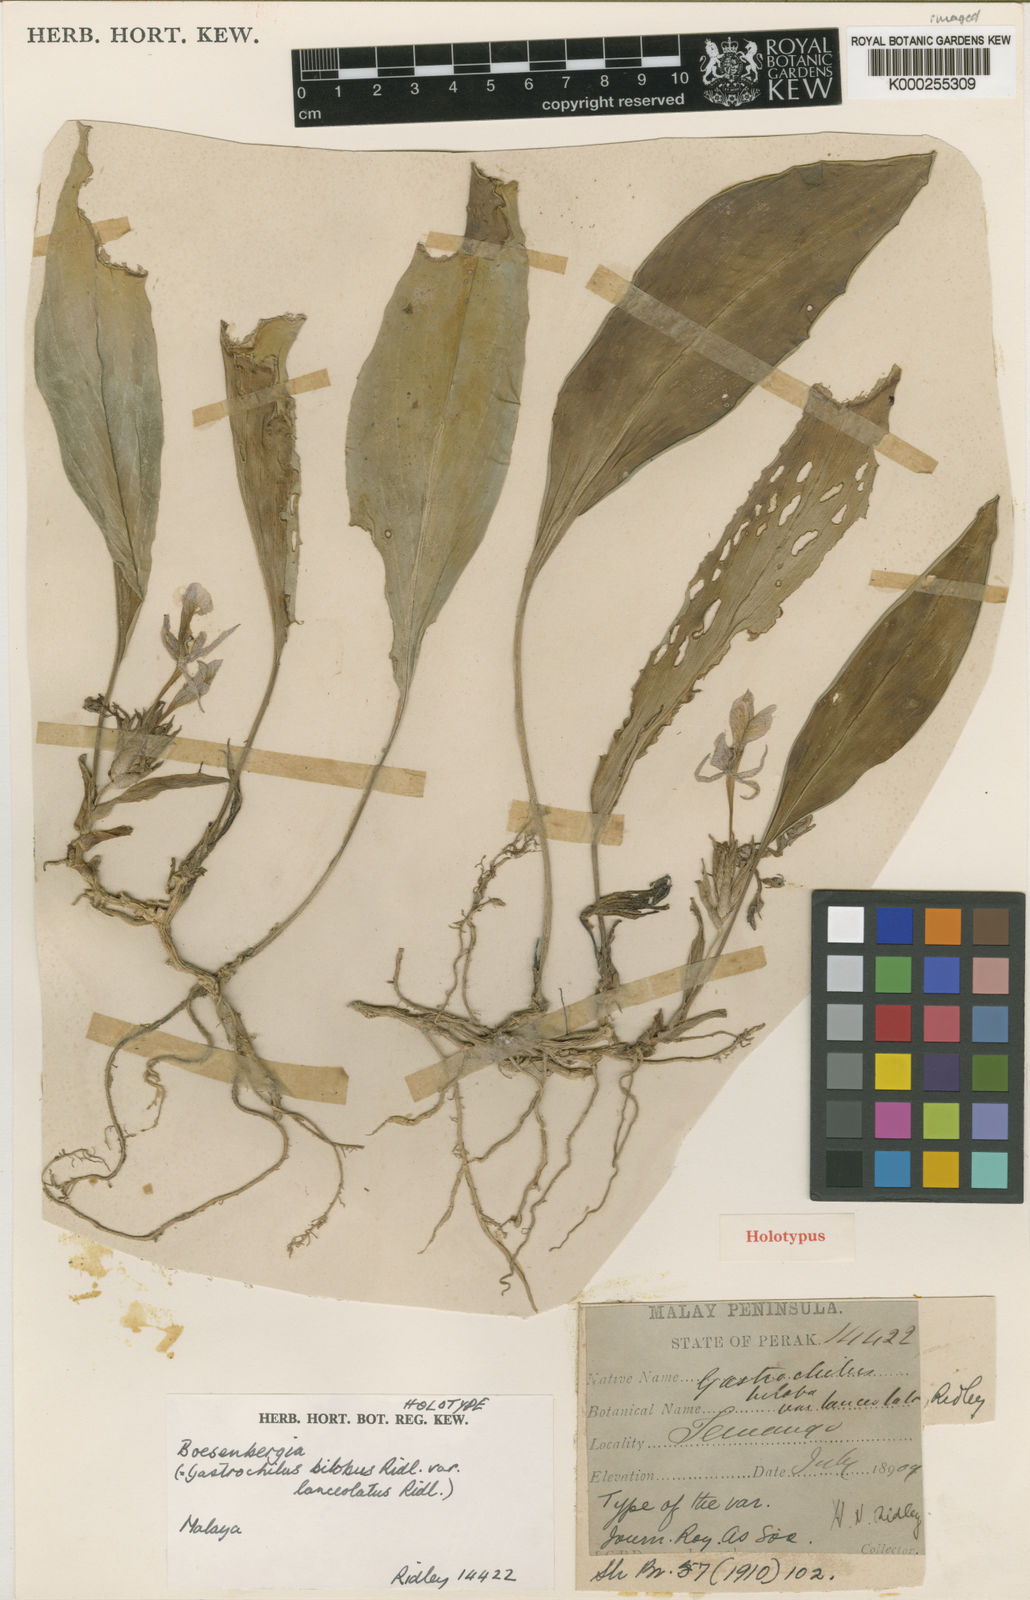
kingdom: Plantae
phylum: Tracheophyta
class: Liliopsida
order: Zingiberales
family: Zingiberaceae
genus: Scaphochlamys
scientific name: Scaphochlamys biloba
